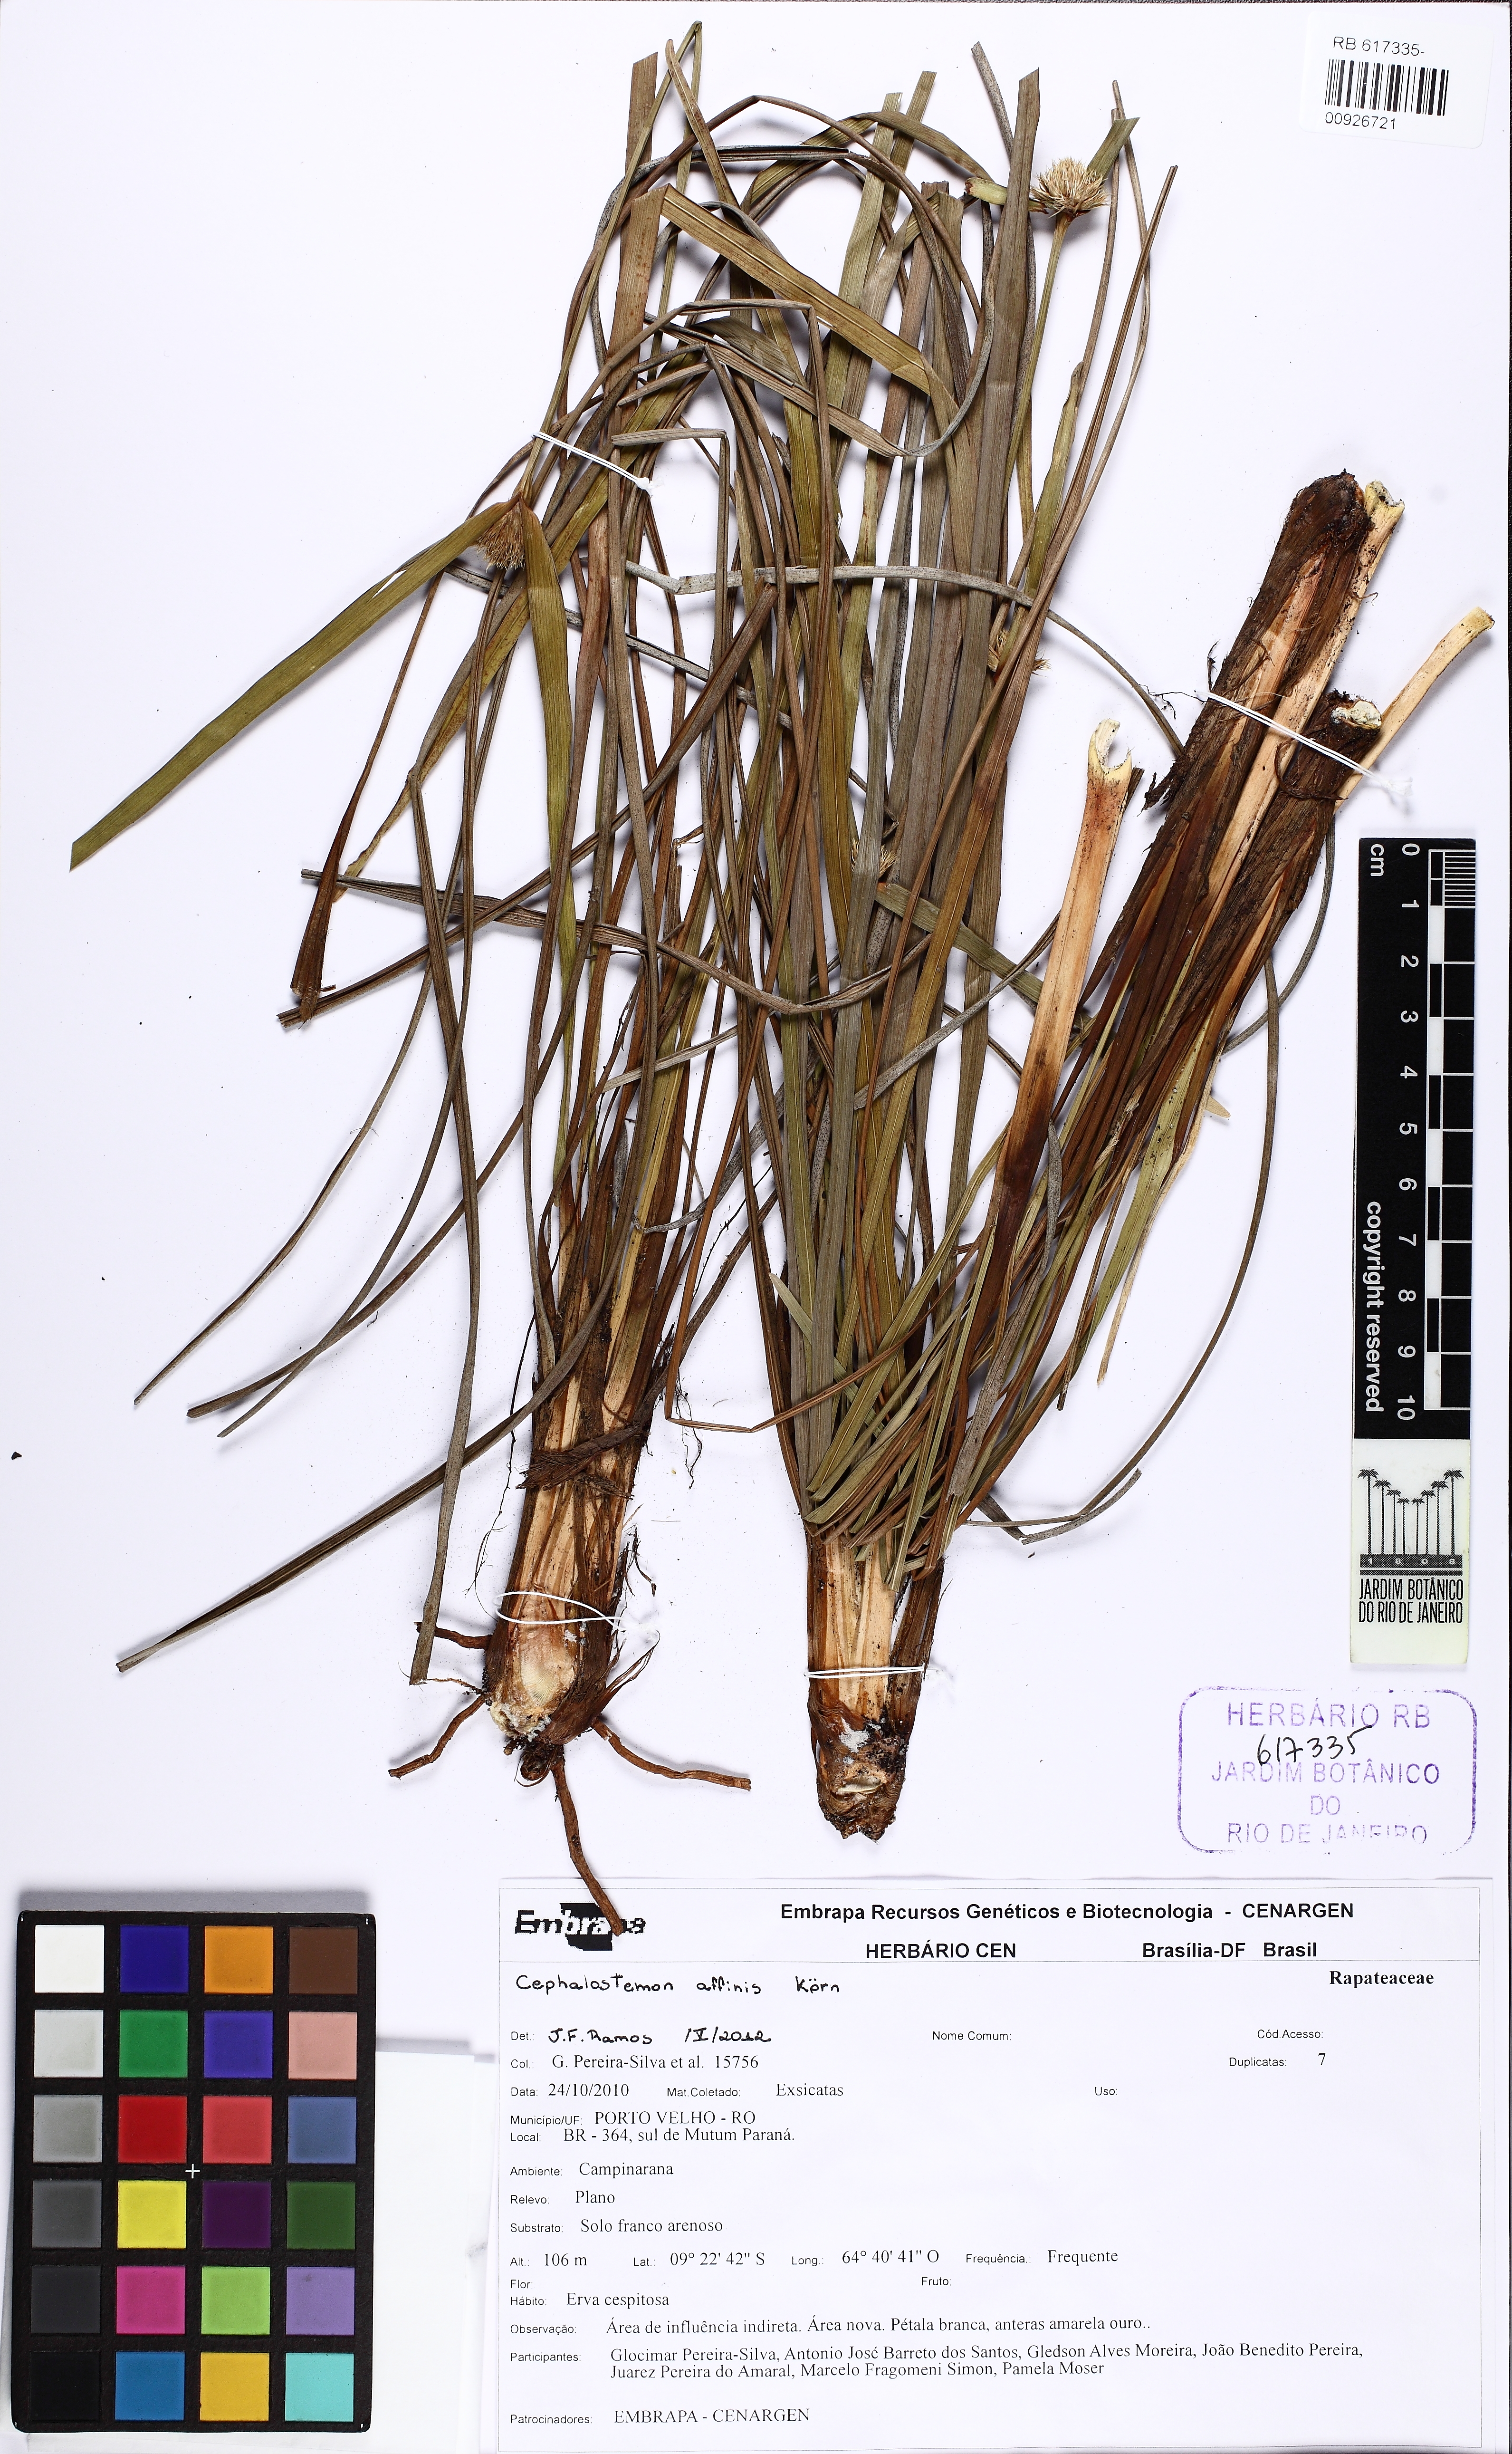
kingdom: Plantae
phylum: Tracheophyta
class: Liliopsida
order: Poales
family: Rapateaceae
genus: Cephalostemon
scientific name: Cephalostemon affinis
